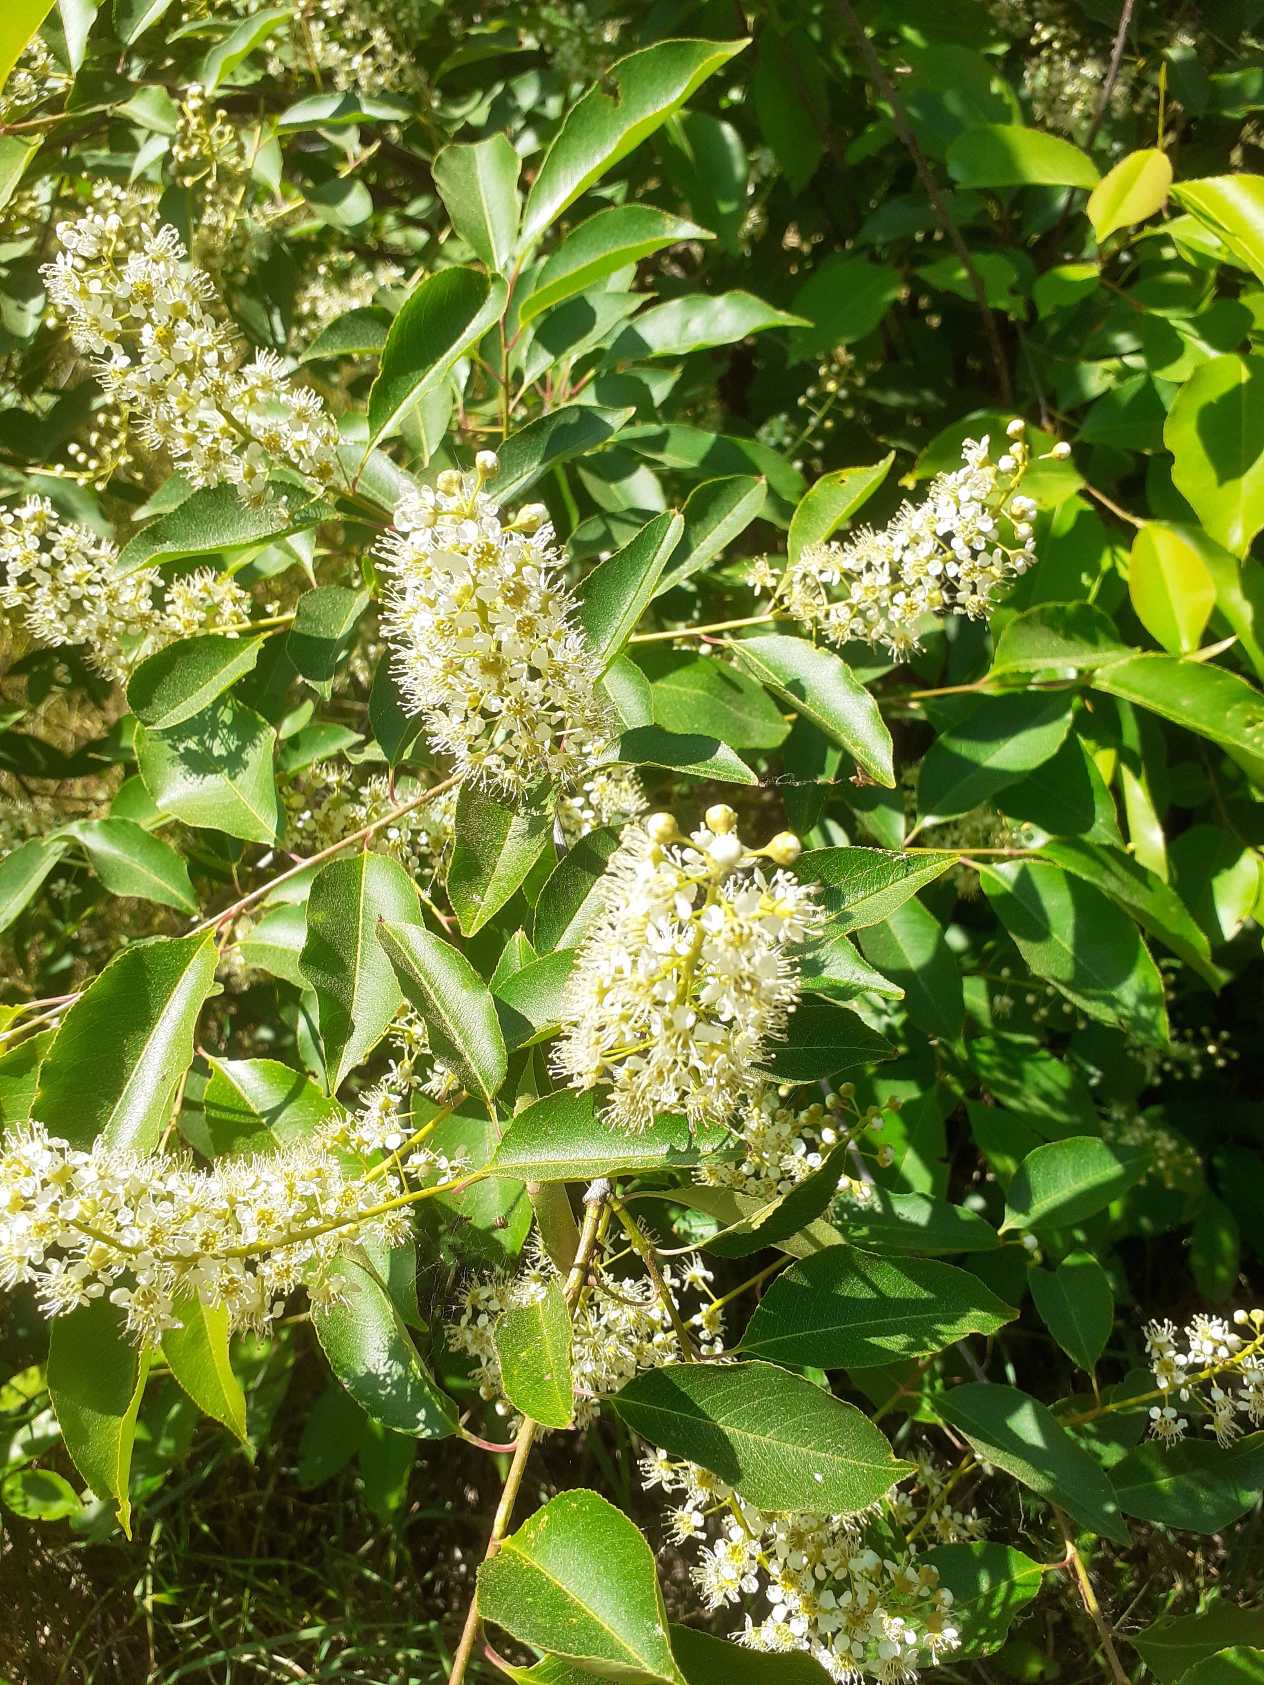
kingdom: Plantae
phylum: Tracheophyta
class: Magnoliopsida
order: Rosales
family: Rosaceae
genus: Prunus
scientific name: Prunus serotina
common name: Glansbladet hæg
